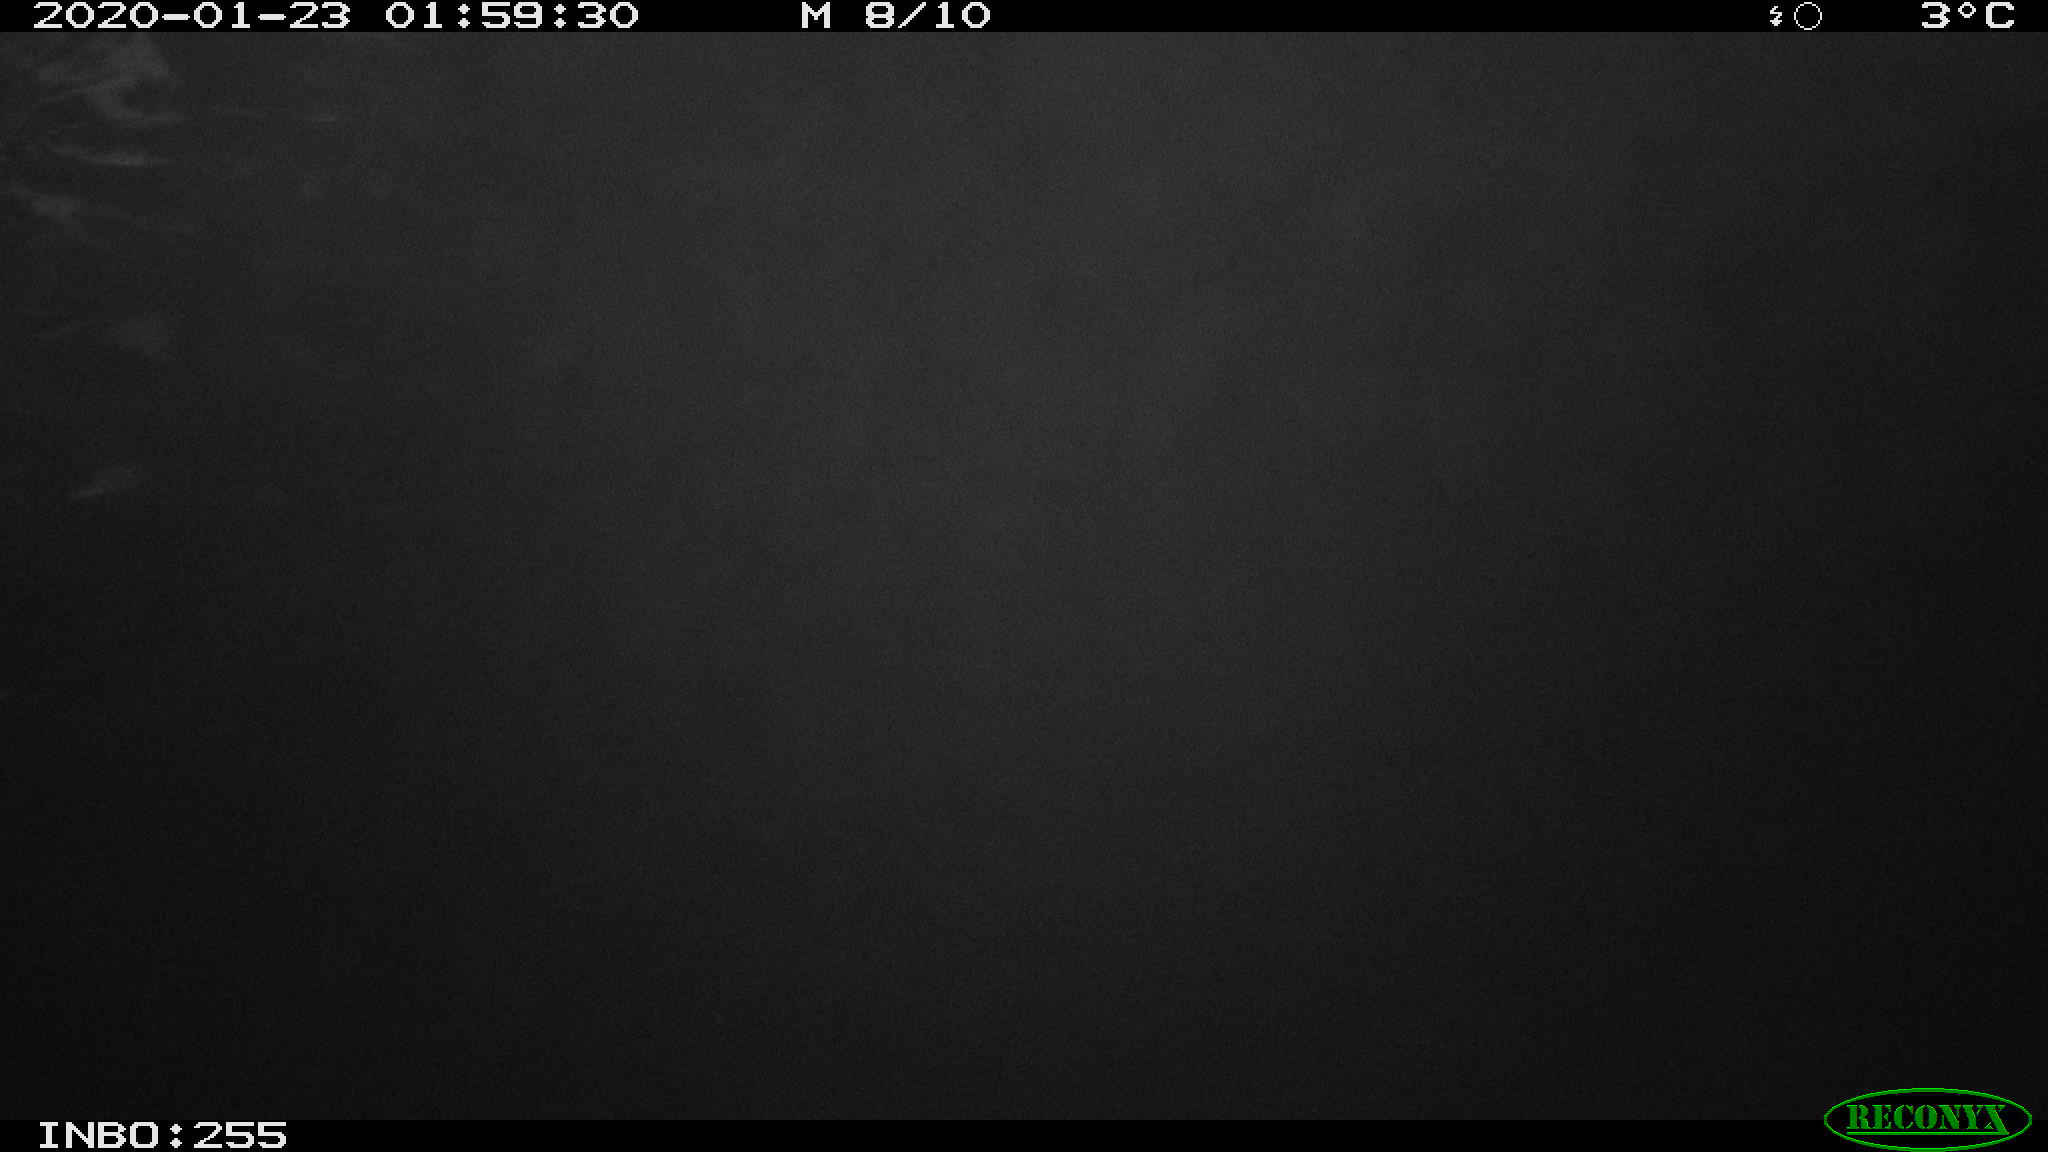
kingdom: Animalia
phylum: Chordata
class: Mammalia
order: Rodentia
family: Cricetidae
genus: Ondatra
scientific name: Ondatra zibethicus
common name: Muskrat
